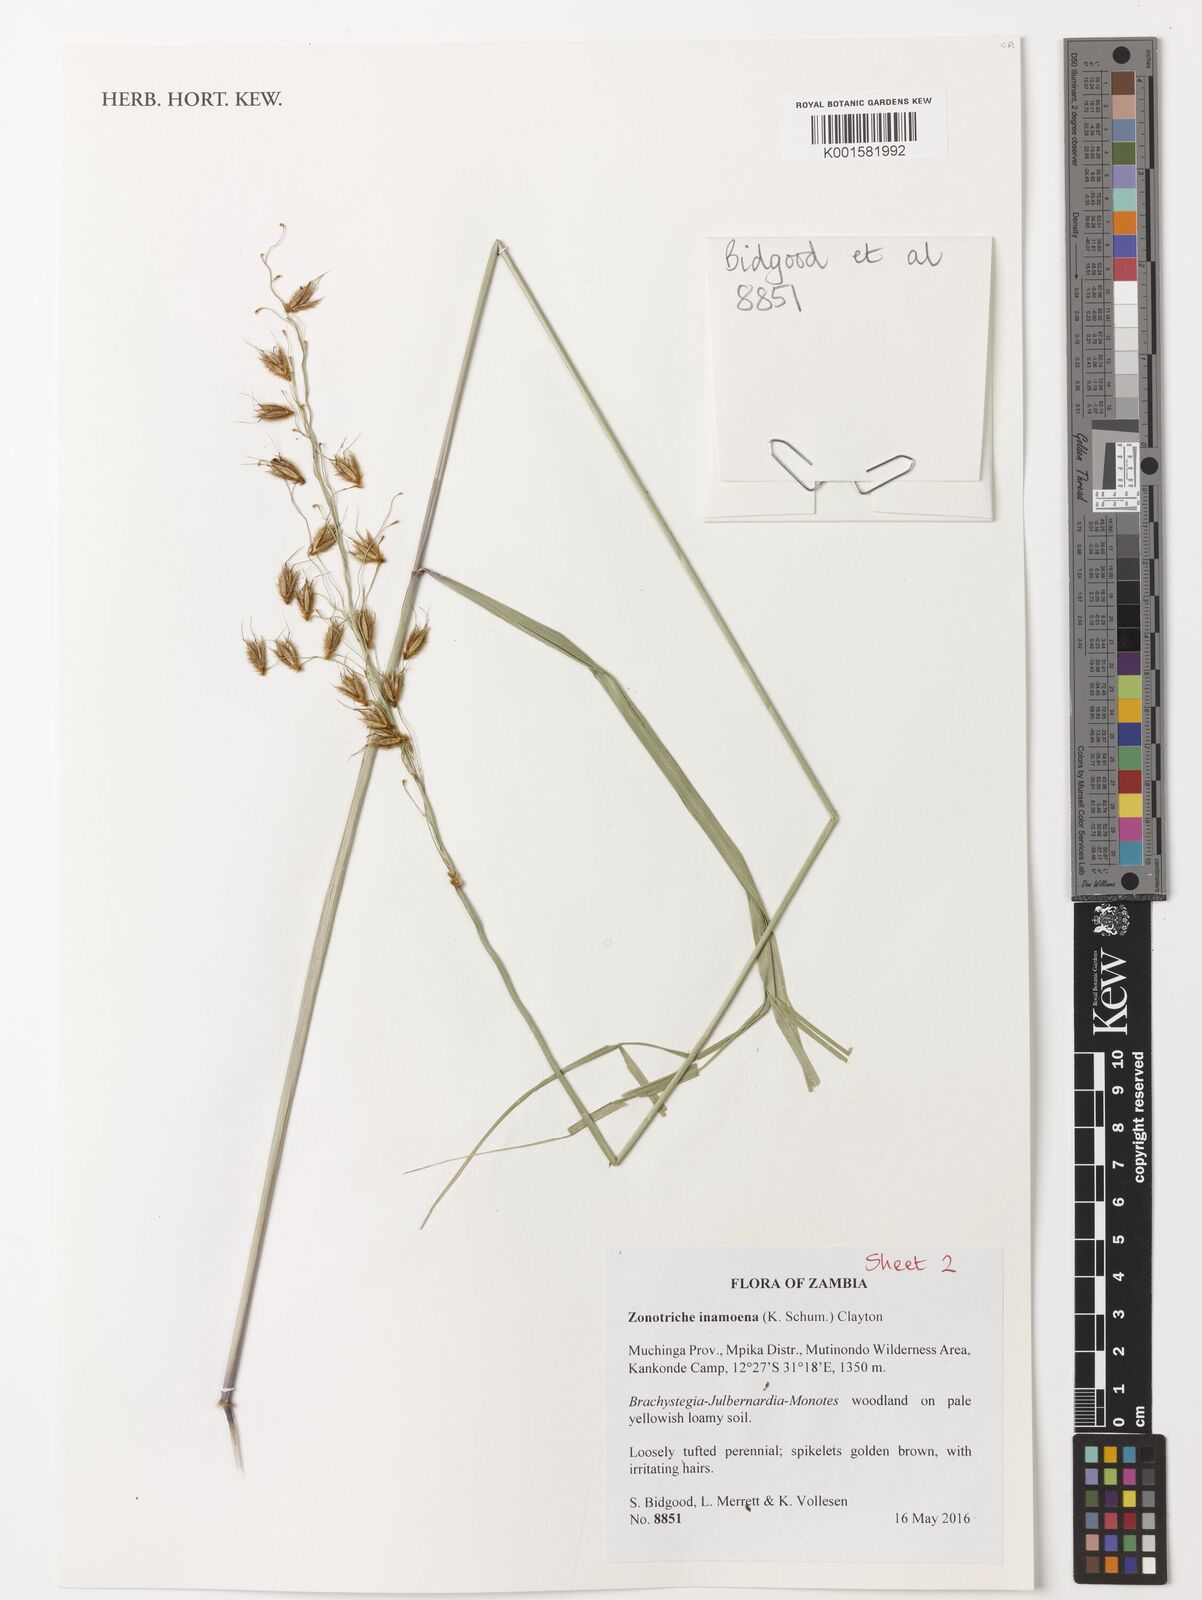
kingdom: Plantae
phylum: Tracheophyta
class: Liliopsida
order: Poales
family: Poaceae
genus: Zonotriche
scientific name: Zonotriche inamoena
